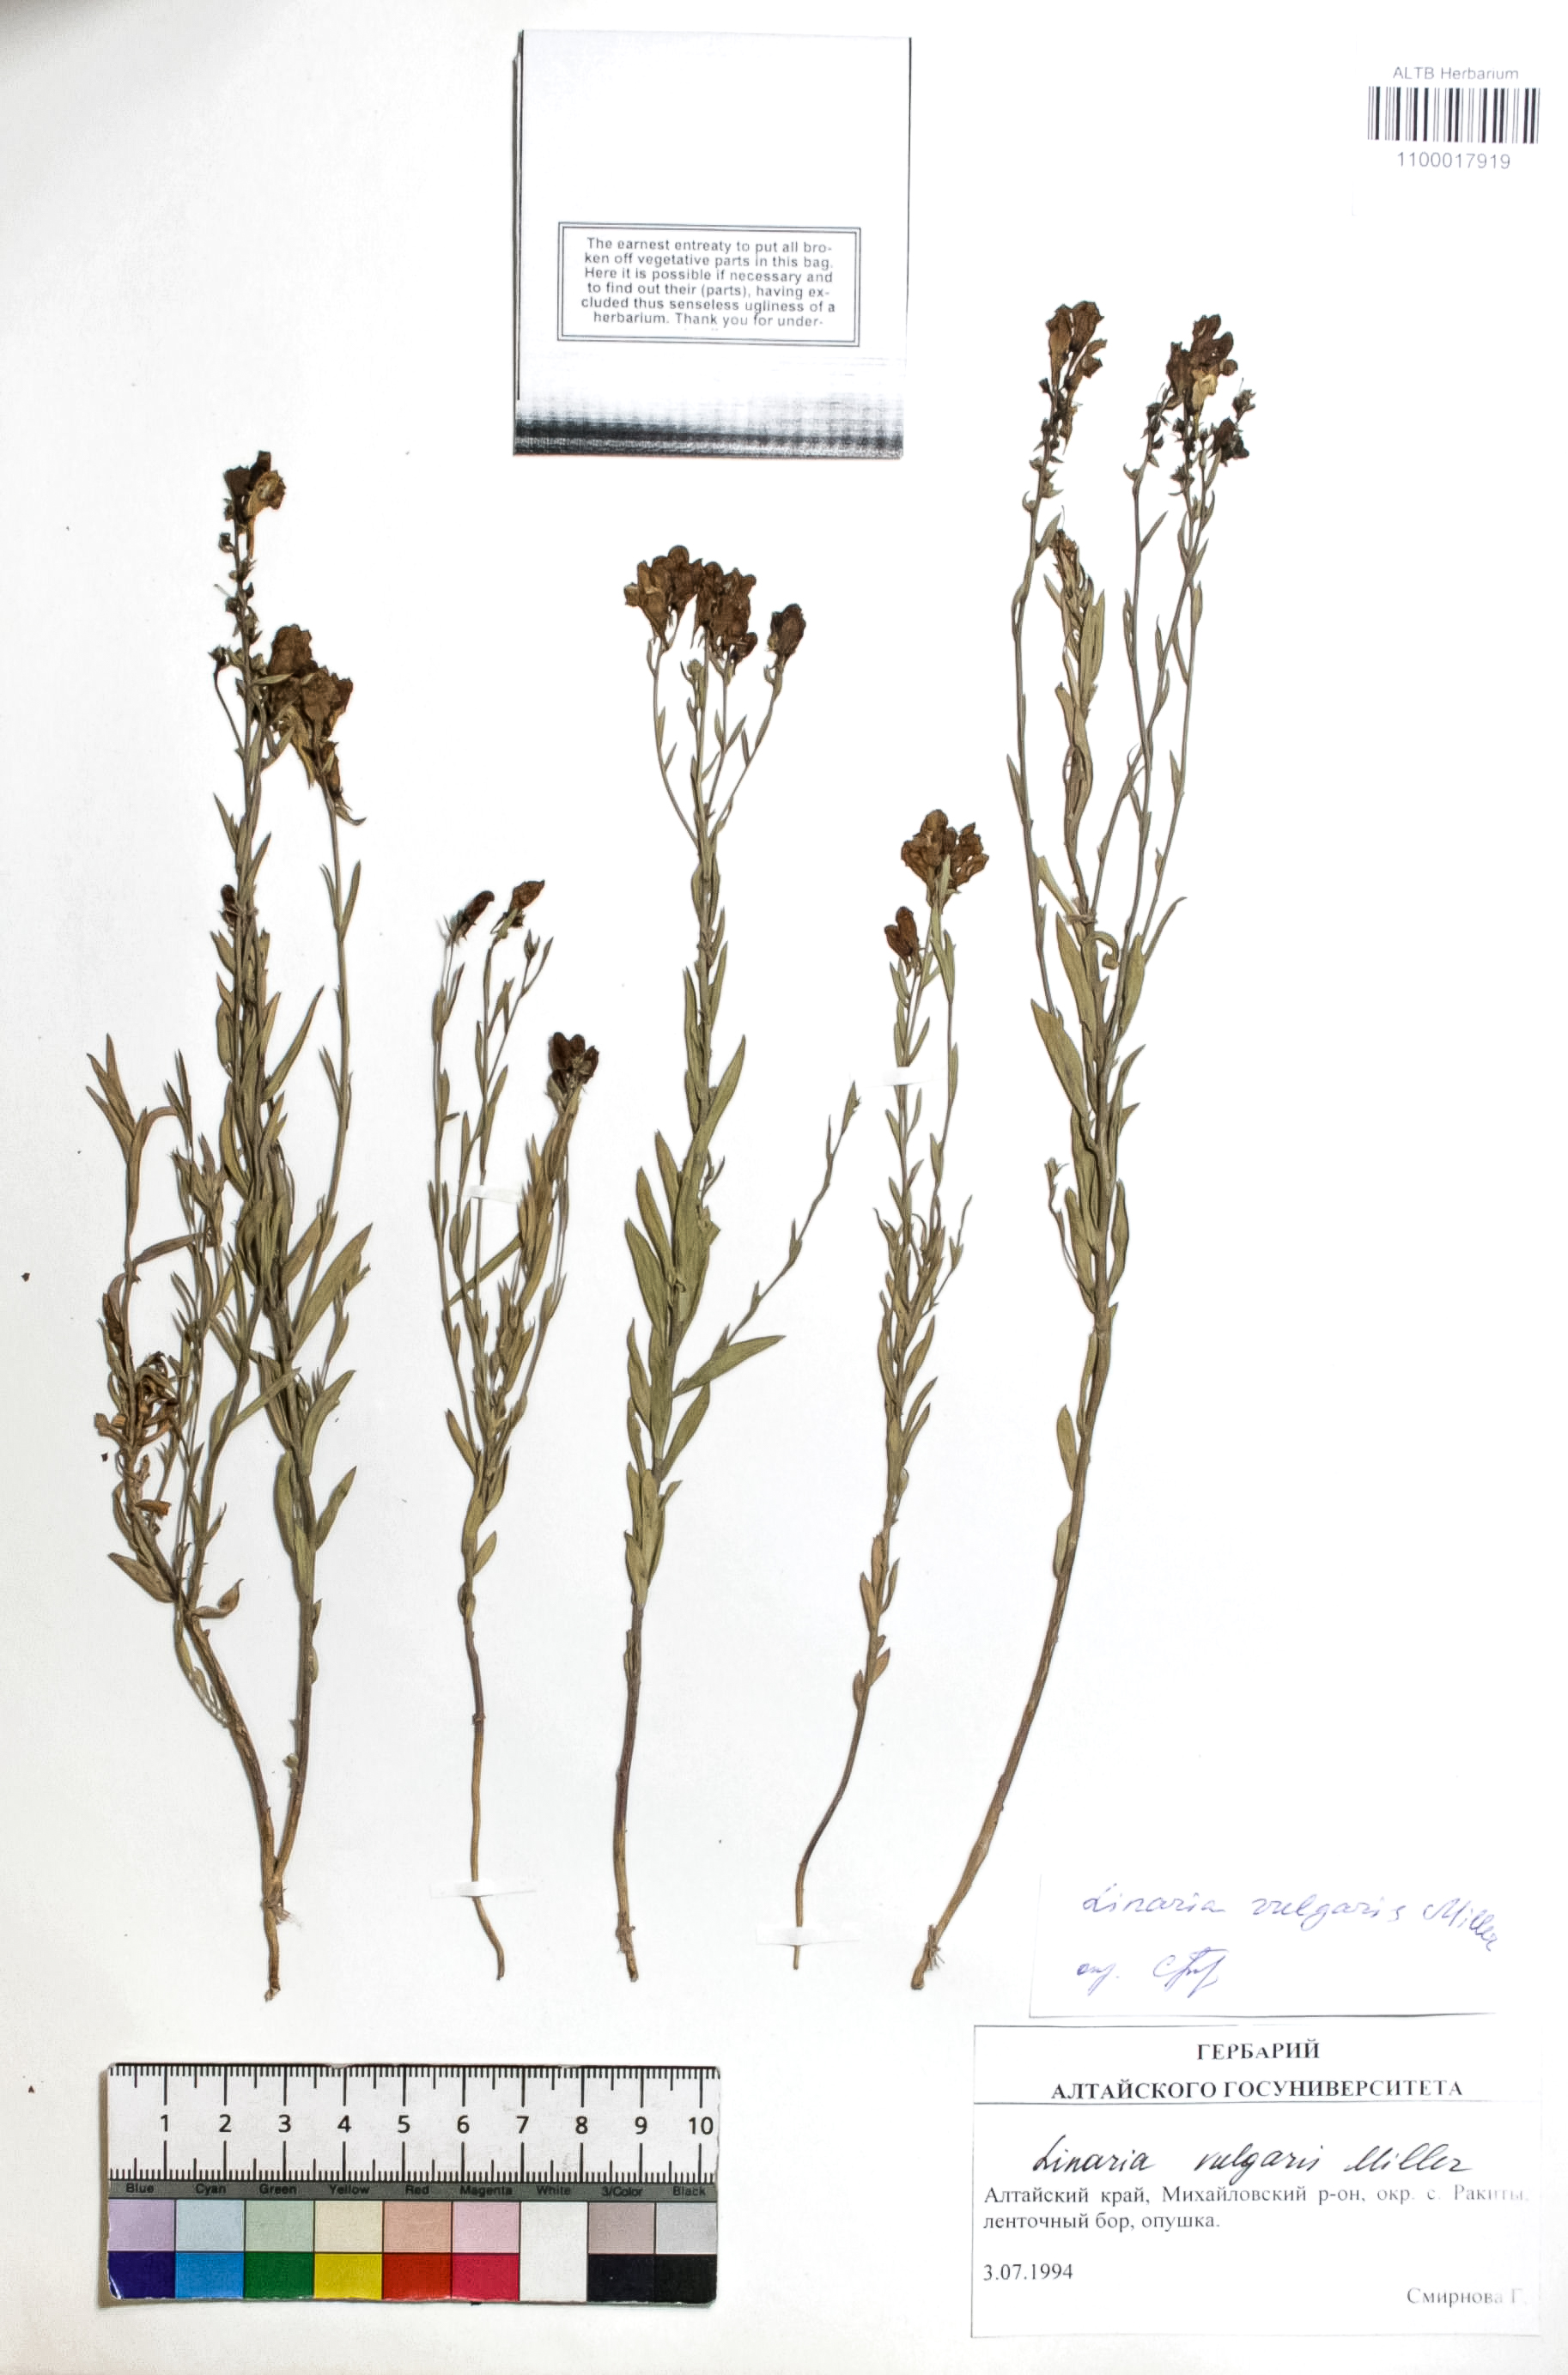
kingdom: Plantae
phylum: Tracheophyta
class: Magnoliopsida
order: Lamiales
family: Plantaginaceae
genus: Linaria
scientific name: Linaria vulgaris
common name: Butter and eggs
